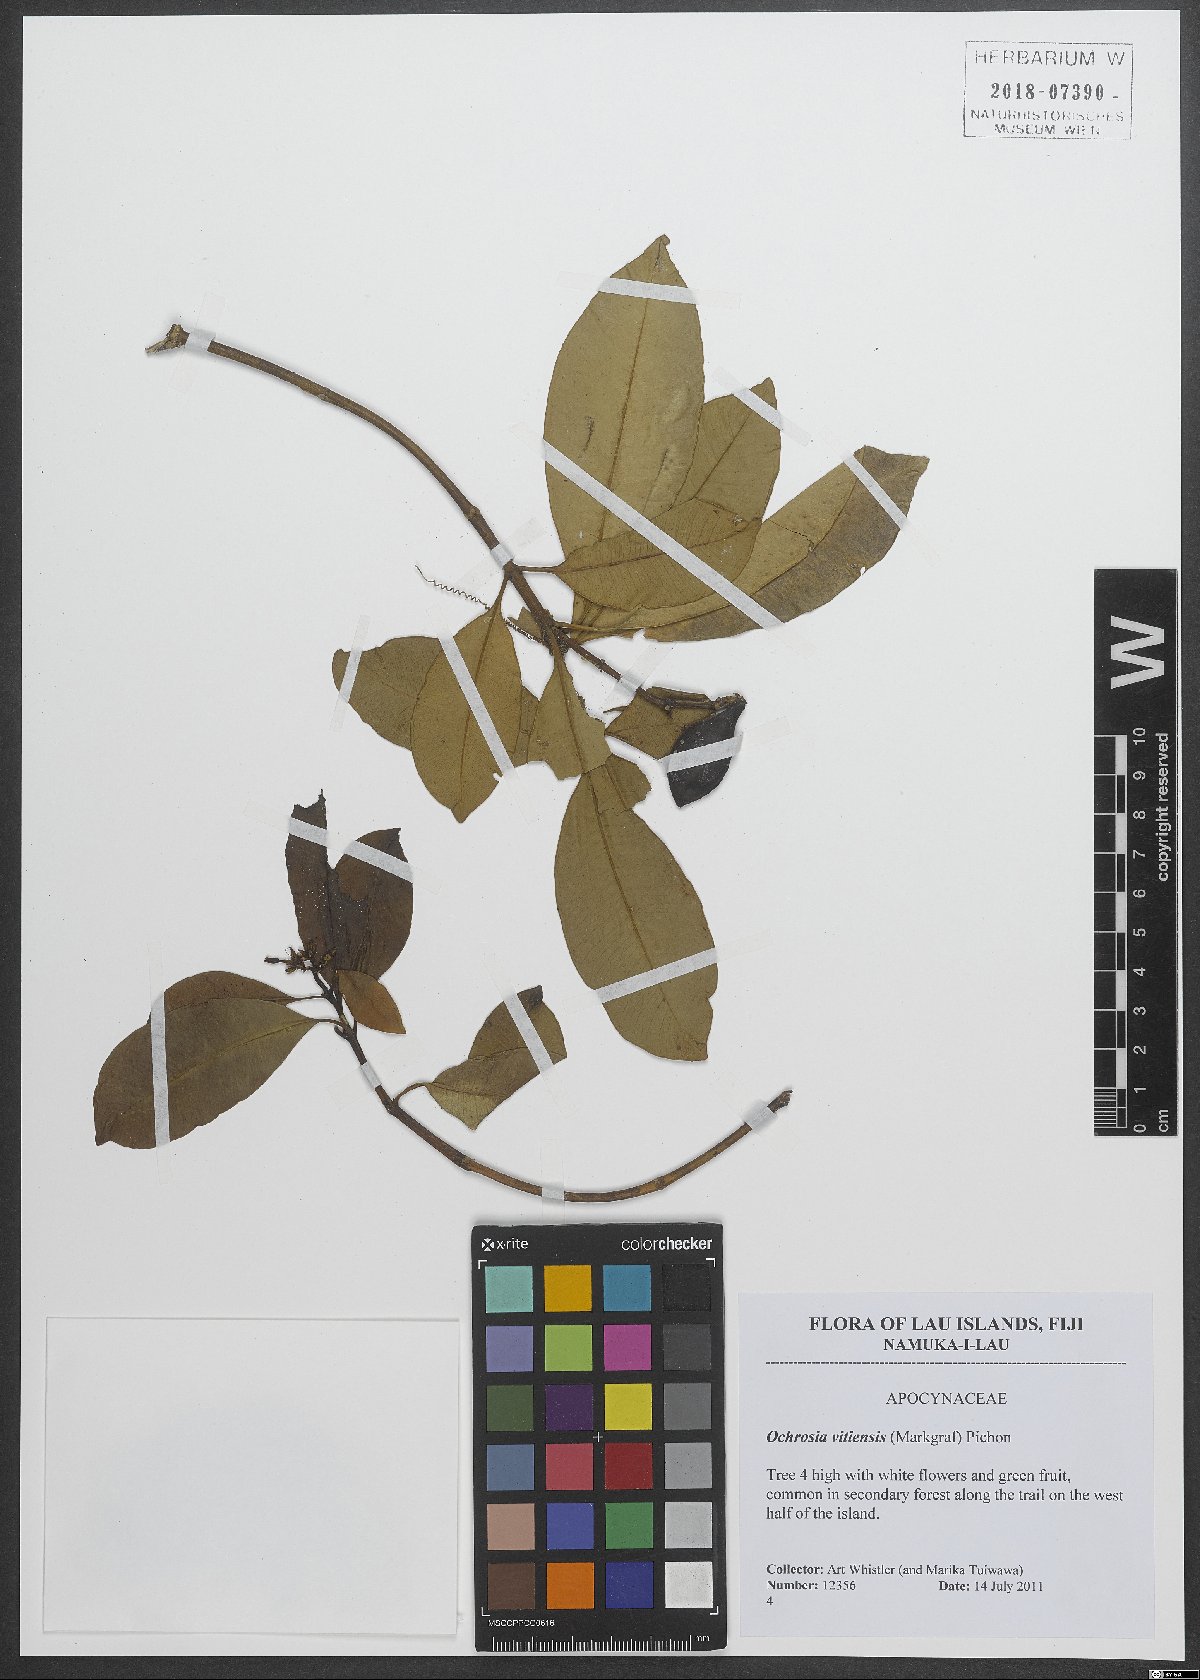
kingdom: Plantae
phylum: Tracheophyta
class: Magnoliopsida
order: Gentianales
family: Apocynaceae
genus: Ochrosia
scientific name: Ochrosia vitiensis
